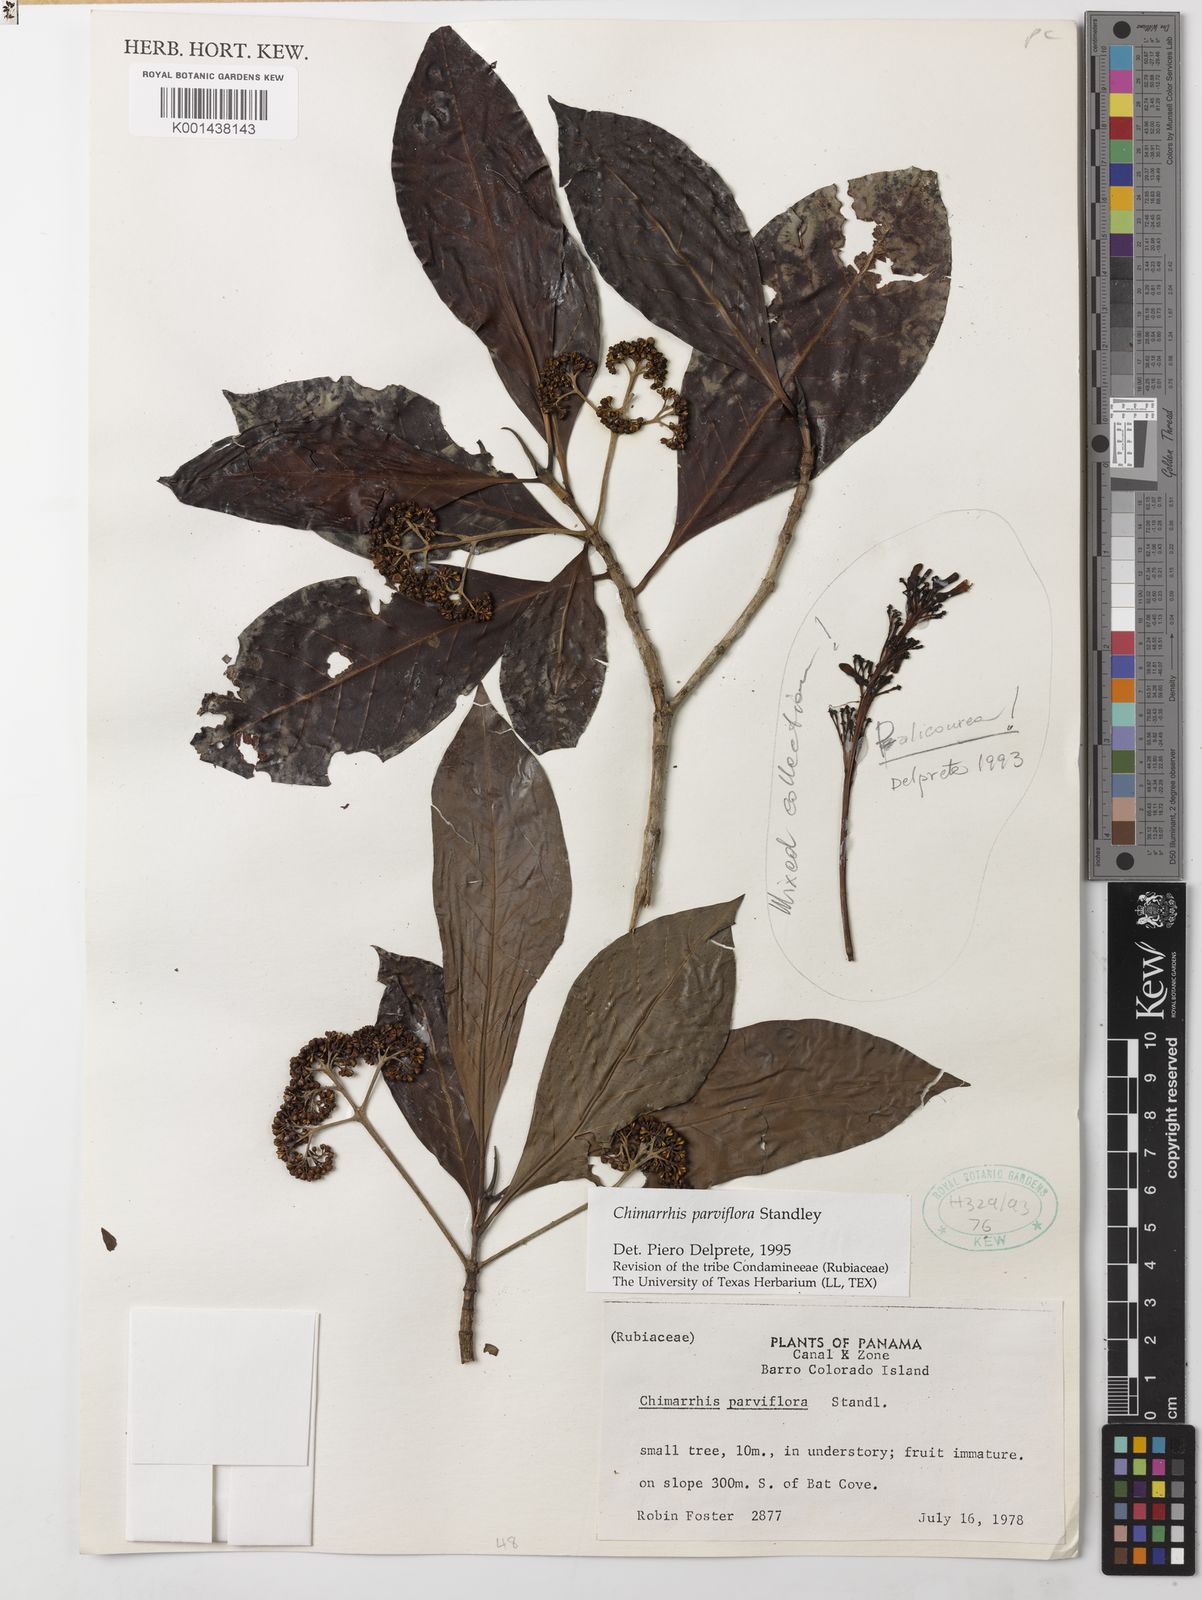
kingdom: Plantae
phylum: Tracheophyta
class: Magnoliopsida
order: Gentianales
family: Rubiaceae
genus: Chimarrhis
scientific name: Chimarrhis parviflora
